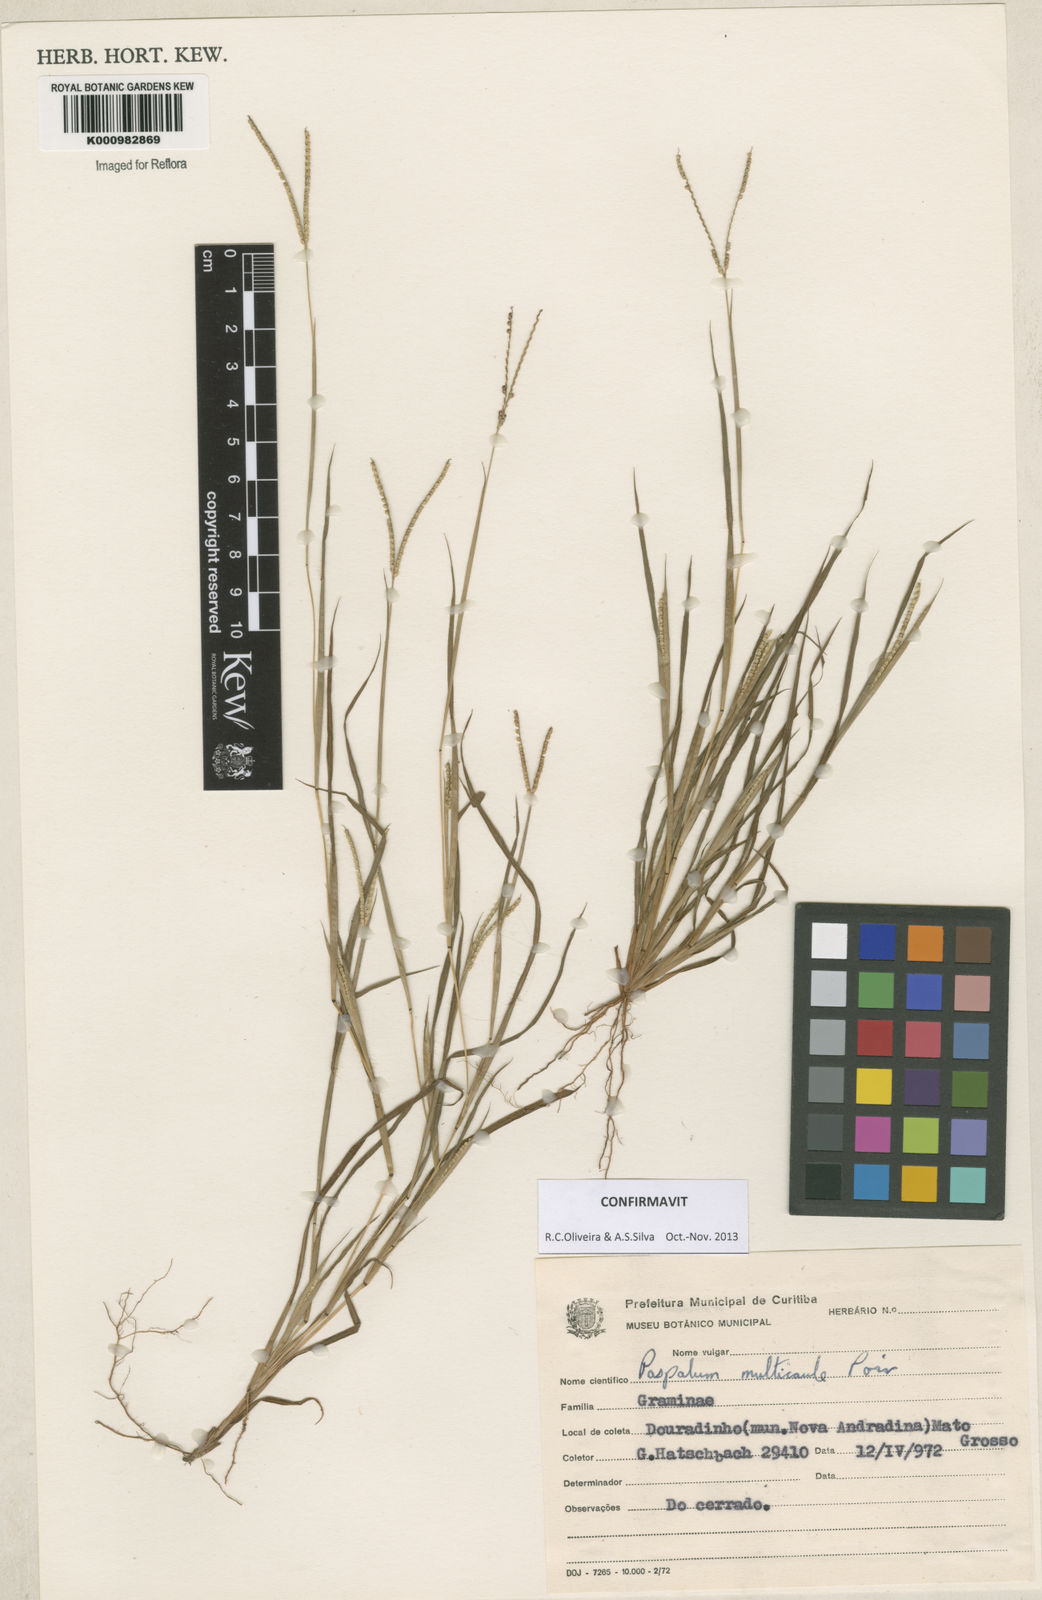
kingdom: Plantae
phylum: Tracheophyta
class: Liliopsida
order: Poales
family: Poaceae
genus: Paspalum
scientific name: Paspalum multicaule
